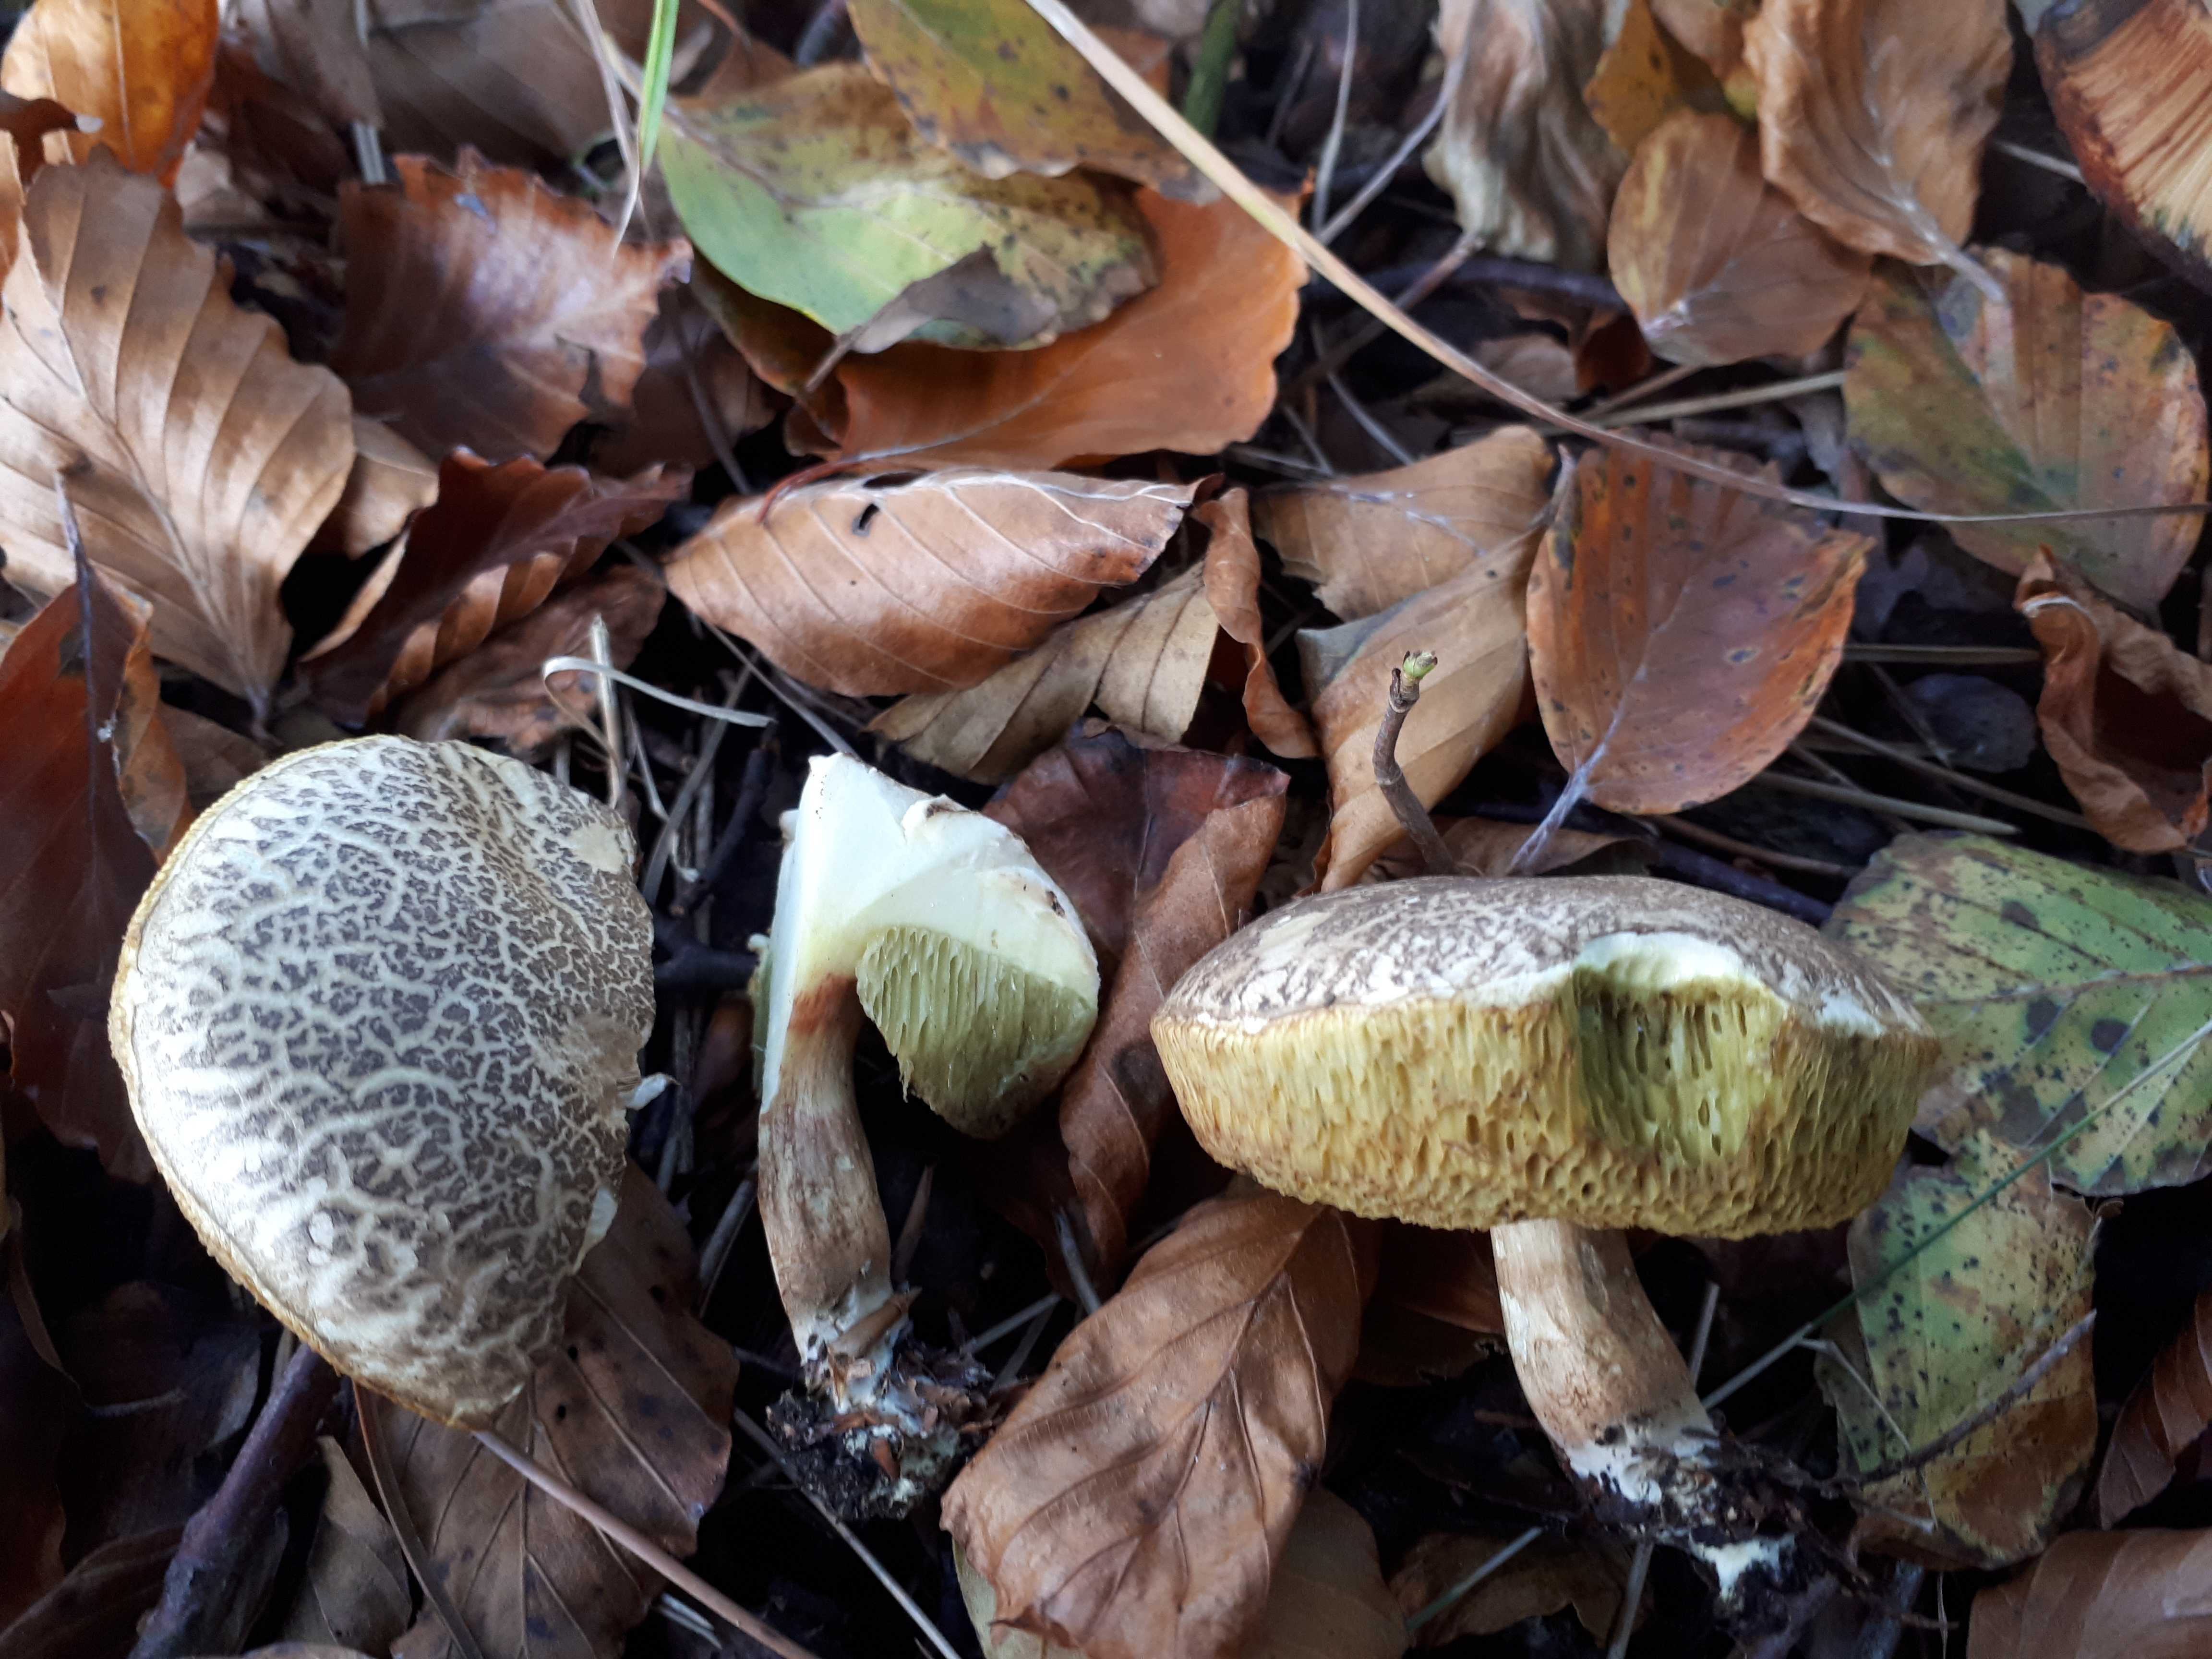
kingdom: Fungi
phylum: Basidiomycota
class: Agaricomycetes
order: Boletales
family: Boletaceae
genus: Xerocomellus
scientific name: Xerocomellus porosporus
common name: hvidsprukken rørhat
